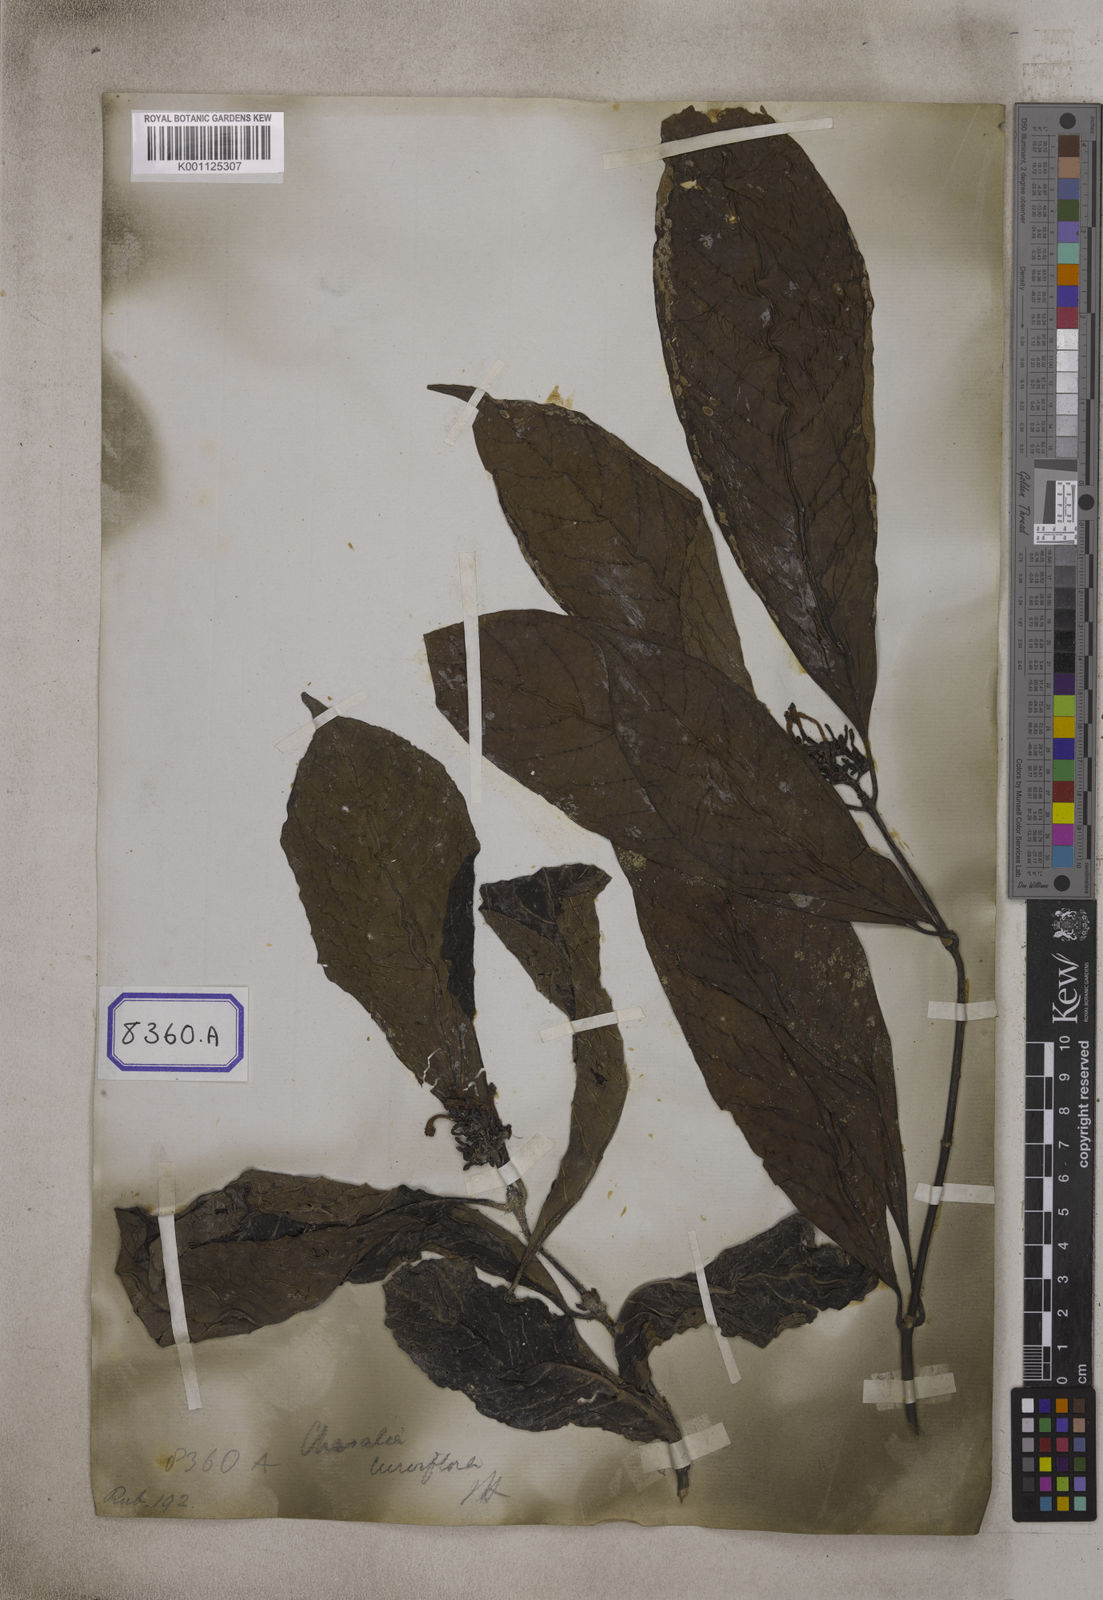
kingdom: Plantae
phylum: Tracheophyta
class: Magnoliopsida
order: Gentianales
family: Rubiaceae
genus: Chassalia
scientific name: Chassalia curviflora
